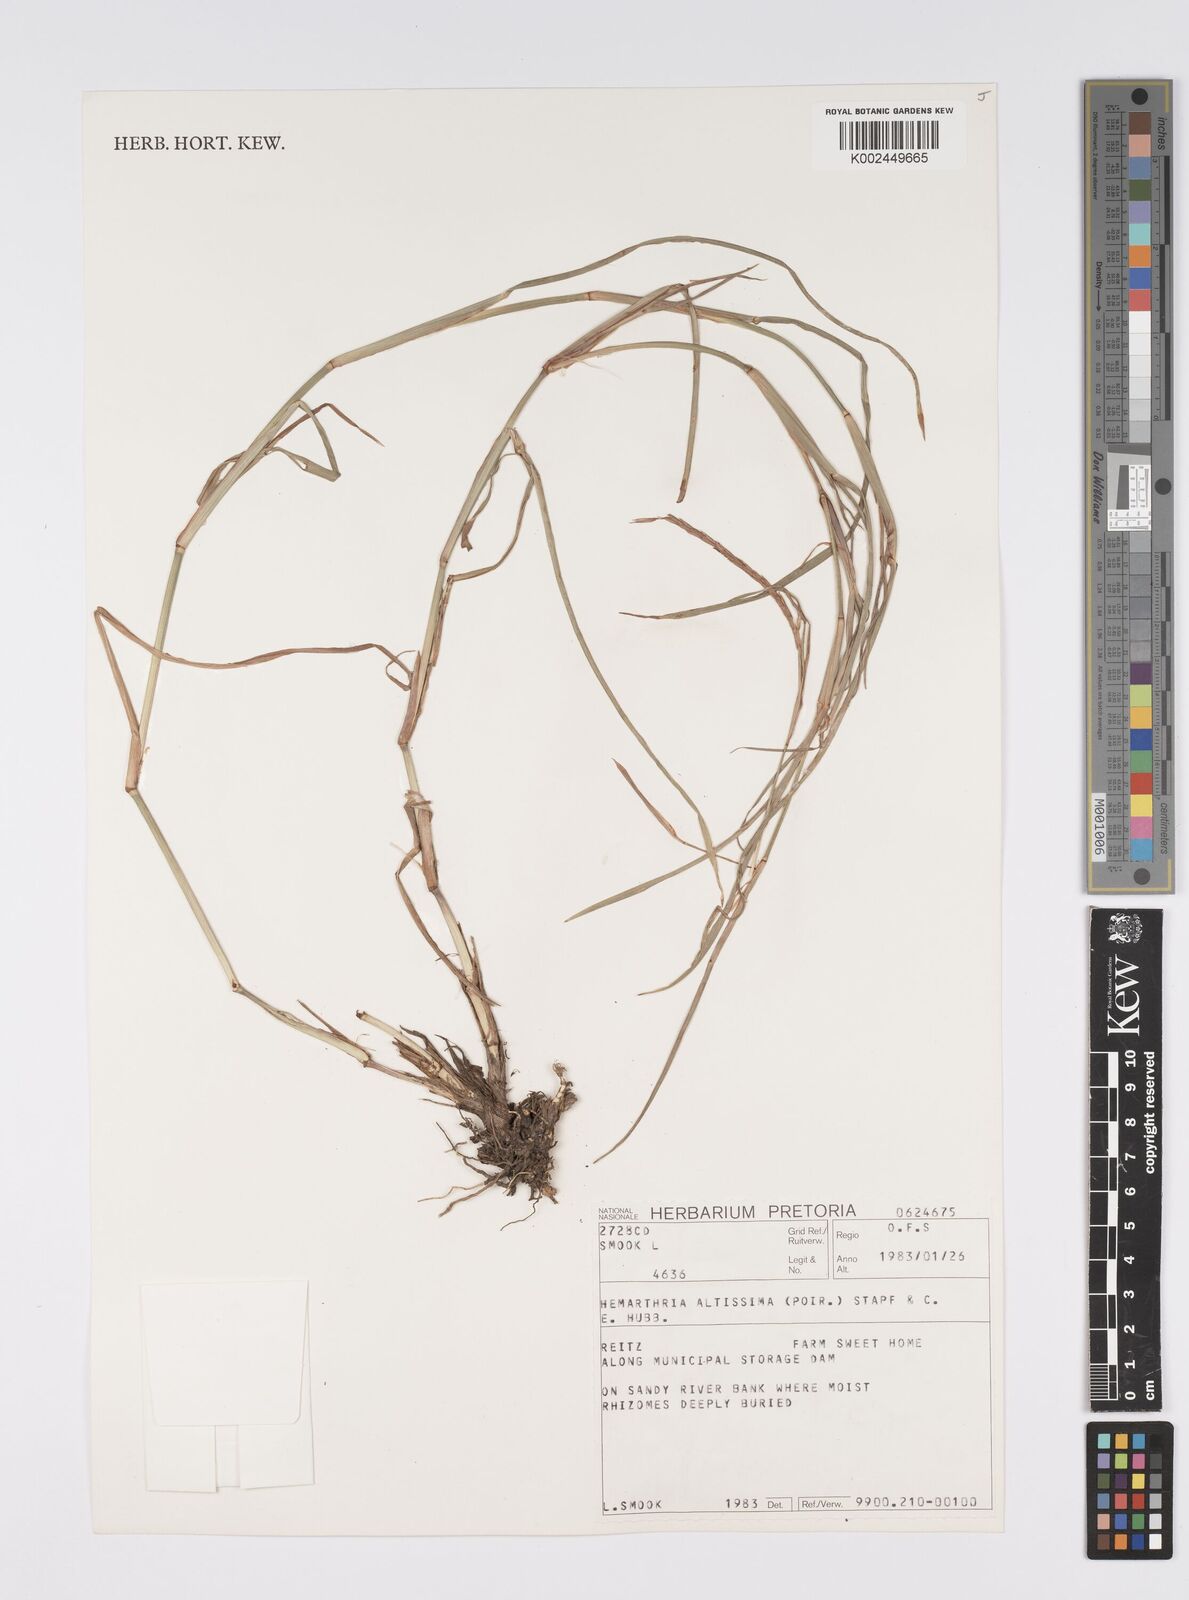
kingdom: Plantae
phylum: Tracheophyta
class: Liliopsida
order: Poales
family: Poaceae
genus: Hemarthria
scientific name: Hemarthria altissima
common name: African jointgrass
